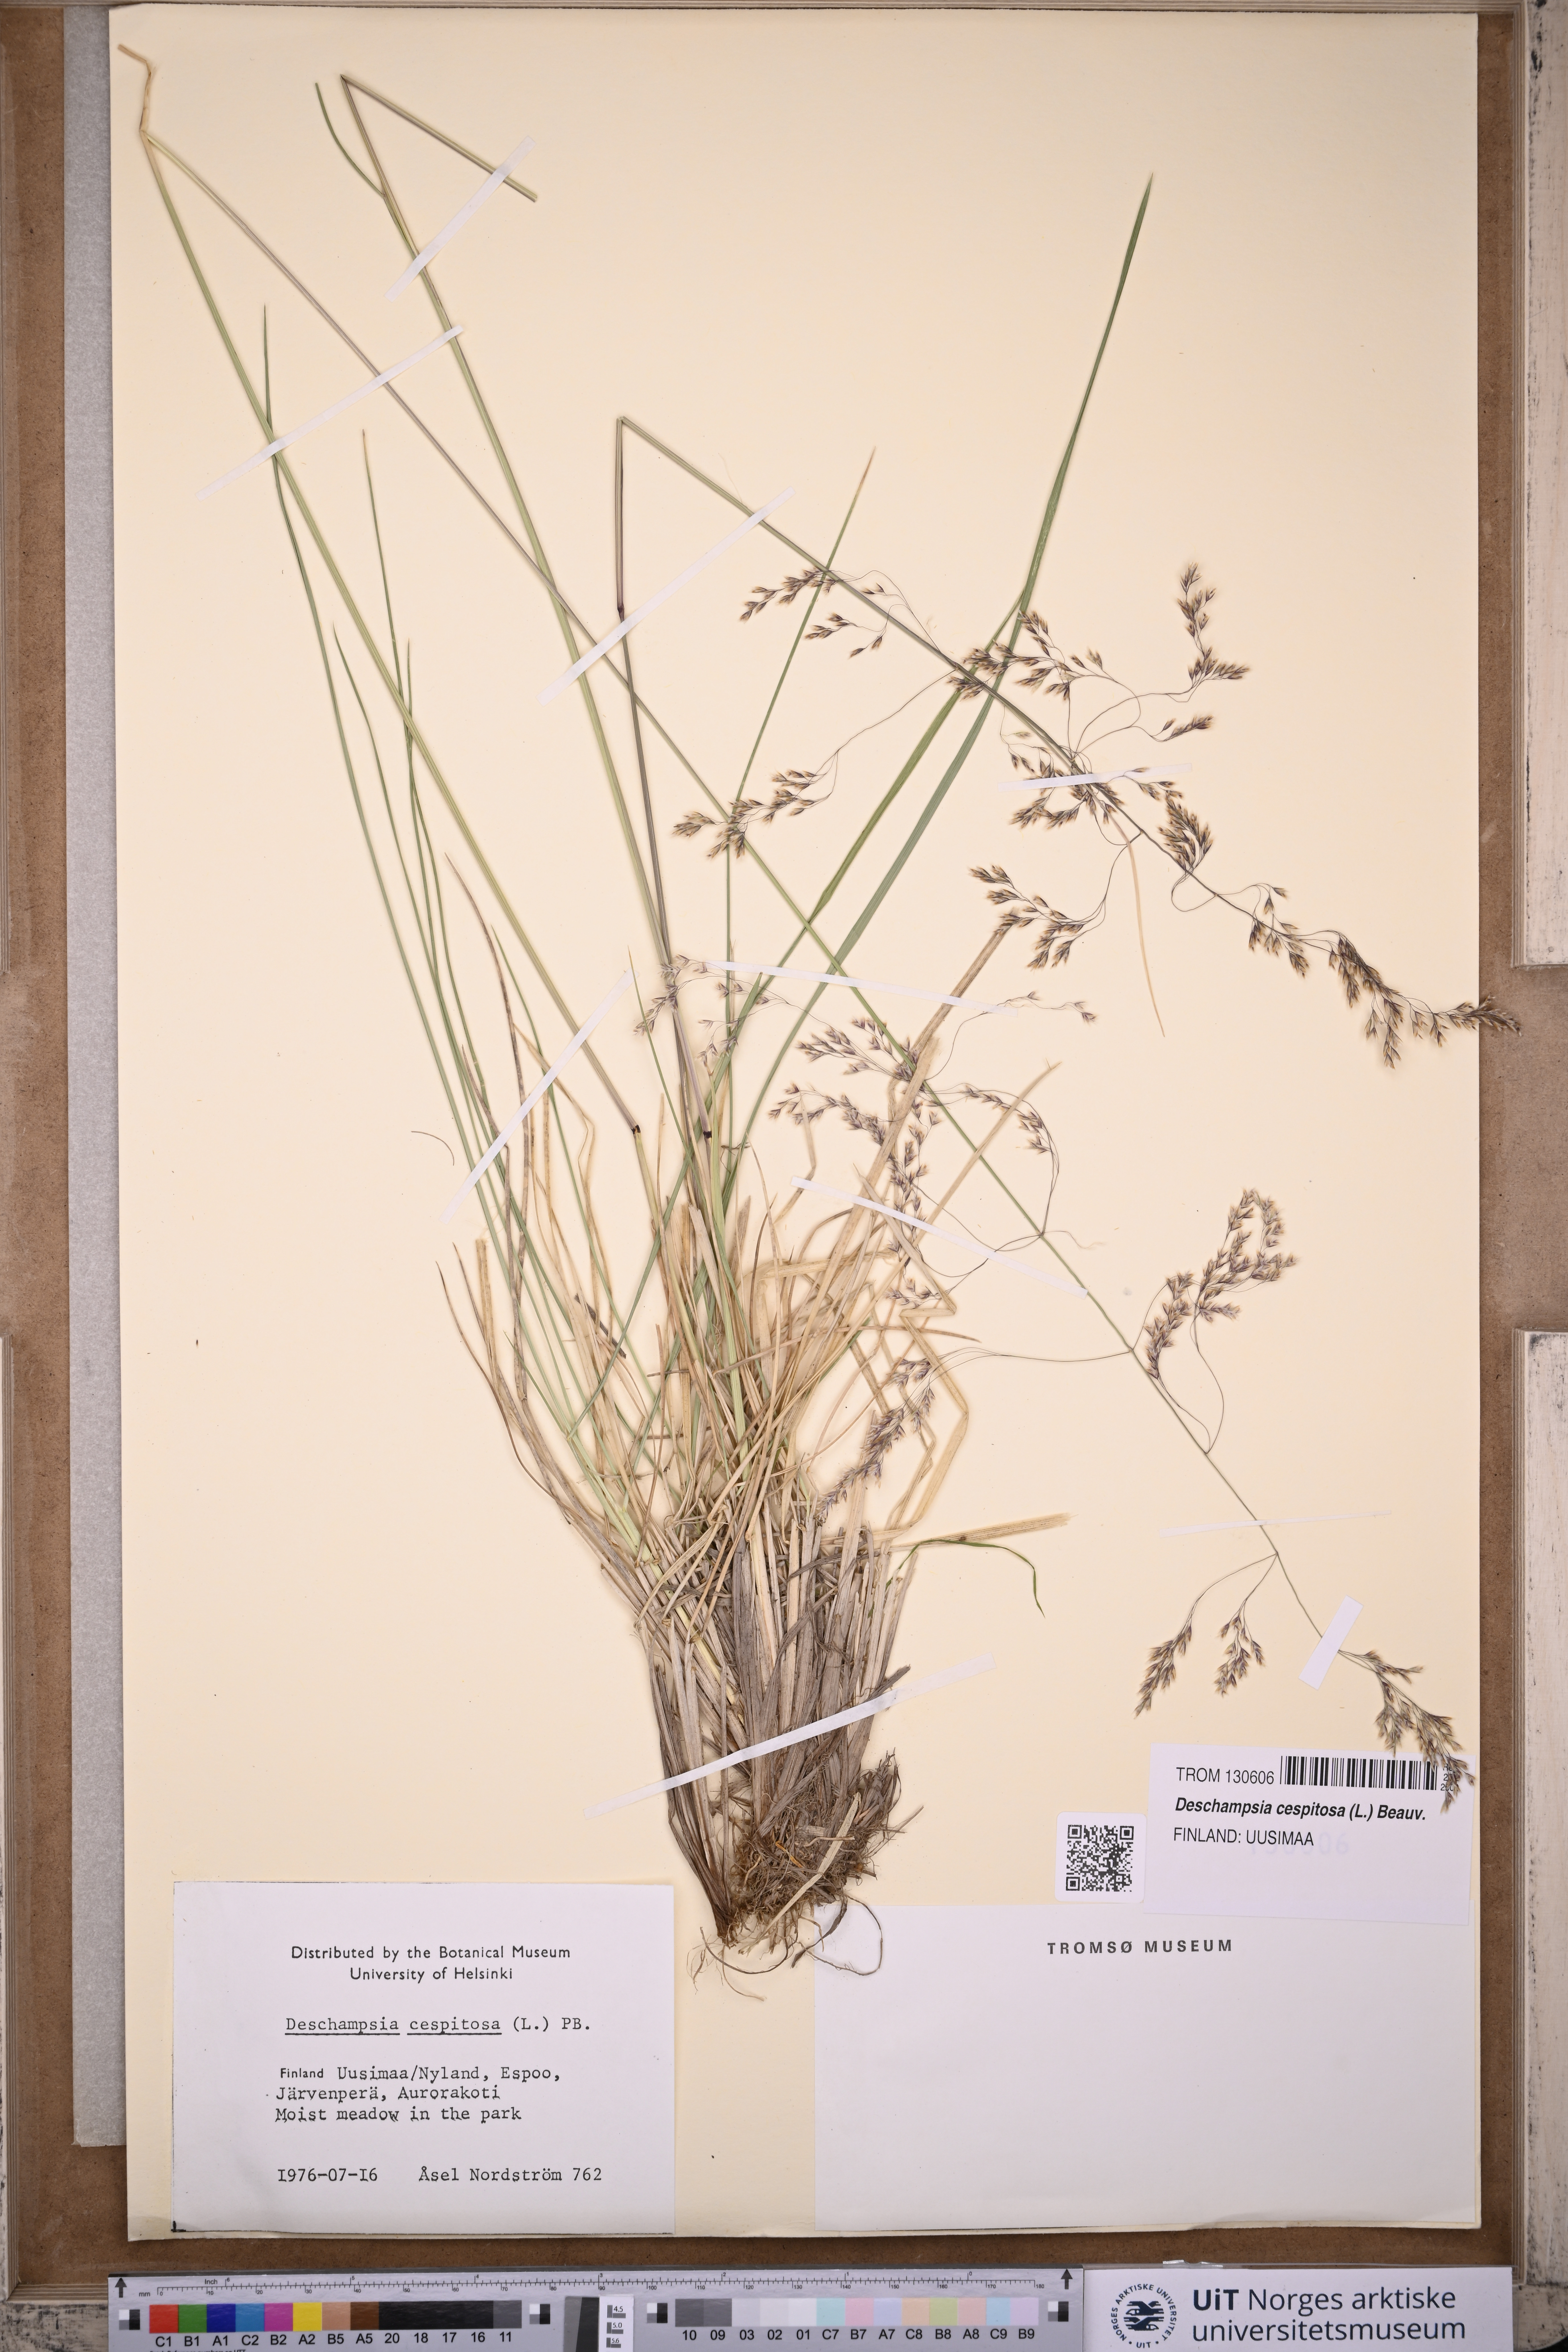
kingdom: Plantae
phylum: Tracheophyta
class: Liliopsida
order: Poales
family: Poaceae
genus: Deschampsia
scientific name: Deschampsia cespitosa
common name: Tufted hair-grass
